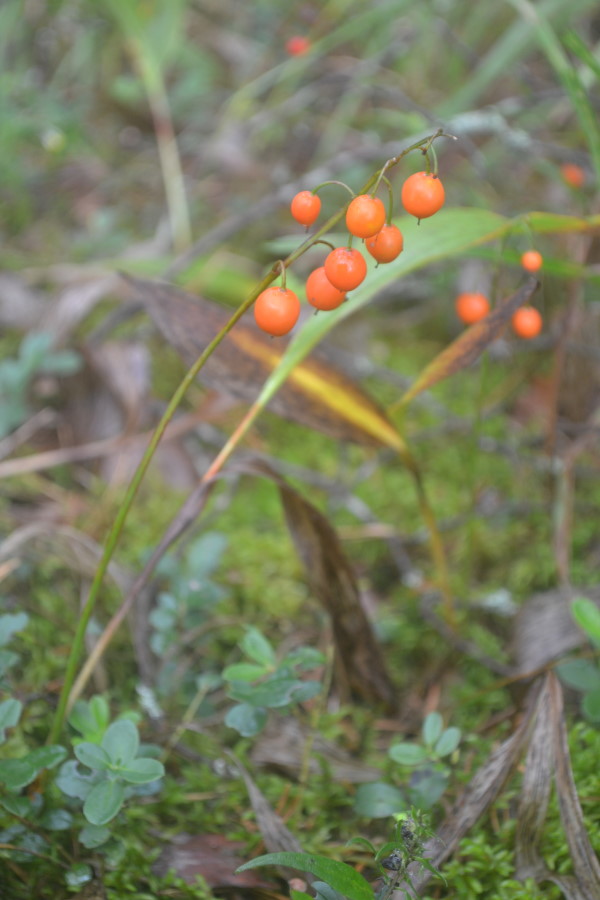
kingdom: Plantae
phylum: Tracheophyta
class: Liliopsida
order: Asparagales
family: Asparagaceae
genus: Convallaria
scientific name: Convallaria majalis
